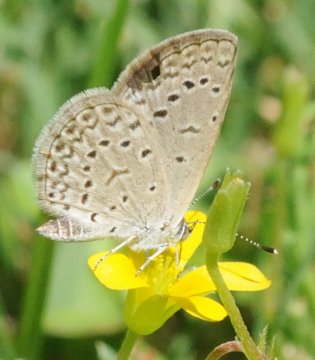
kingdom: Animalia
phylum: Arthropoda
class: Insecta
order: Lepidoptera
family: Lycaenidae
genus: Zizeeria
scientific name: Zizeeria knysna
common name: Dark Grass Blue
